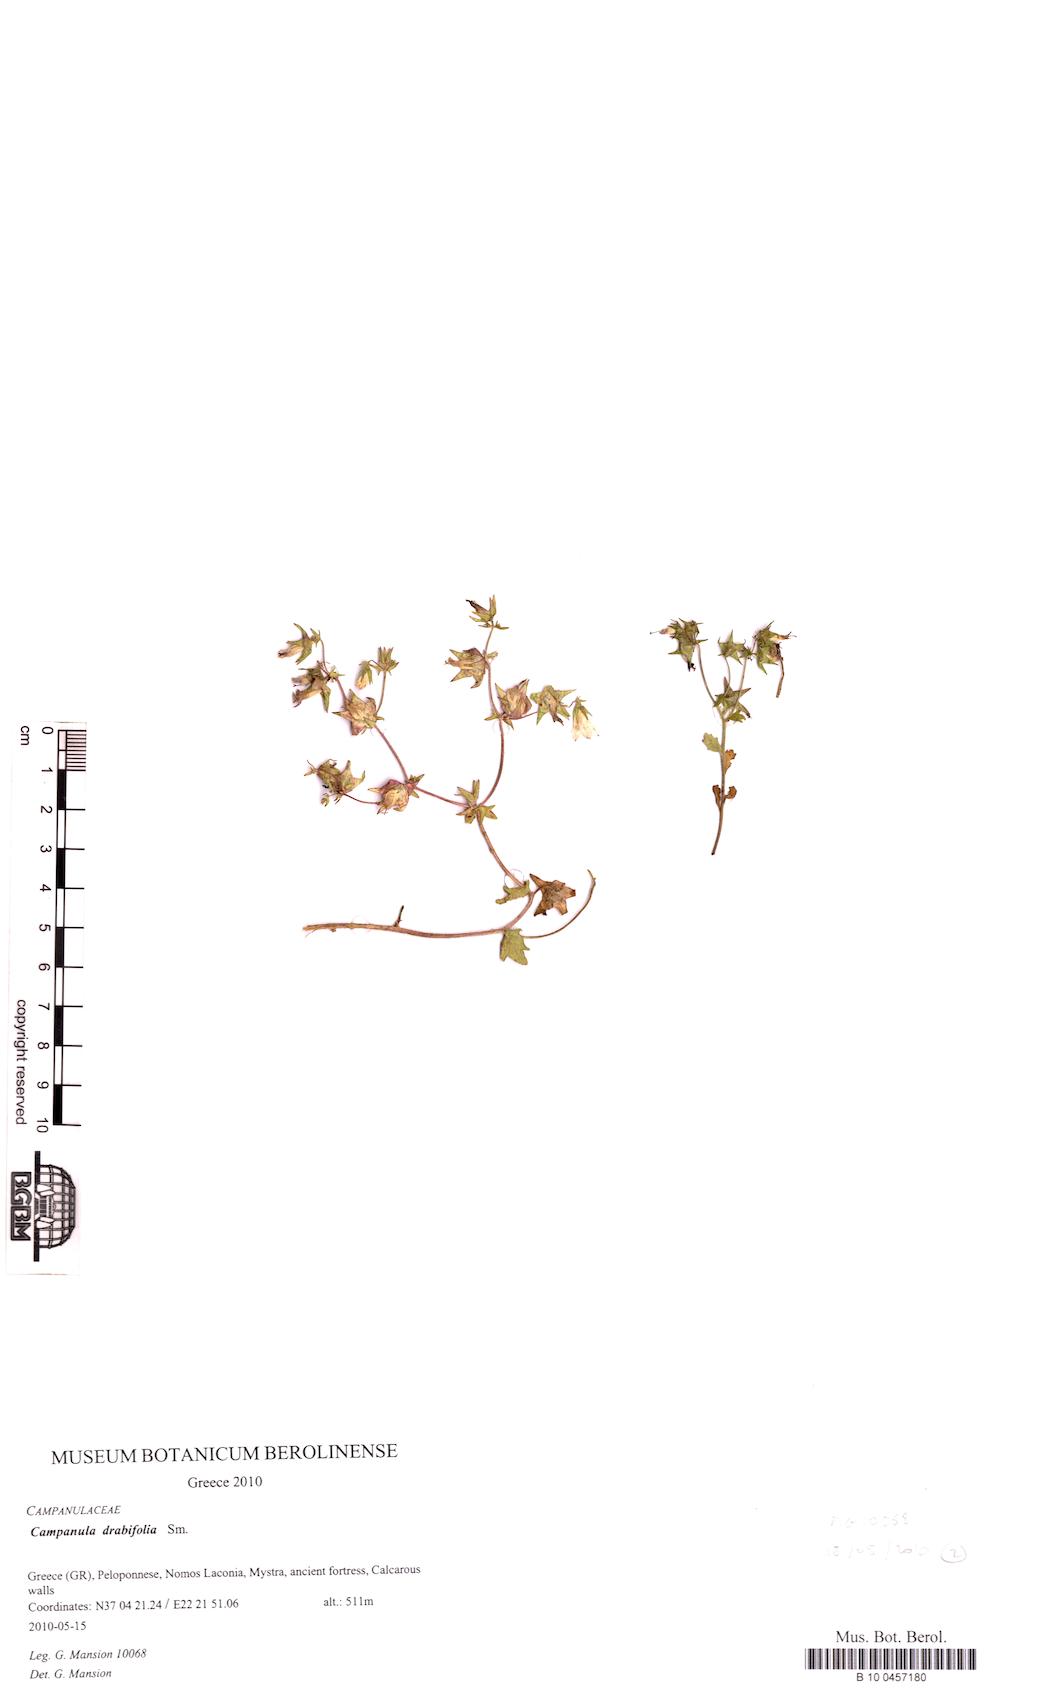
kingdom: Plantae
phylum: Tracheophyta
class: Magnoliopsida
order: Asterales
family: Campanulaceae
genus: Campanula
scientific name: Campanula drabifolia
